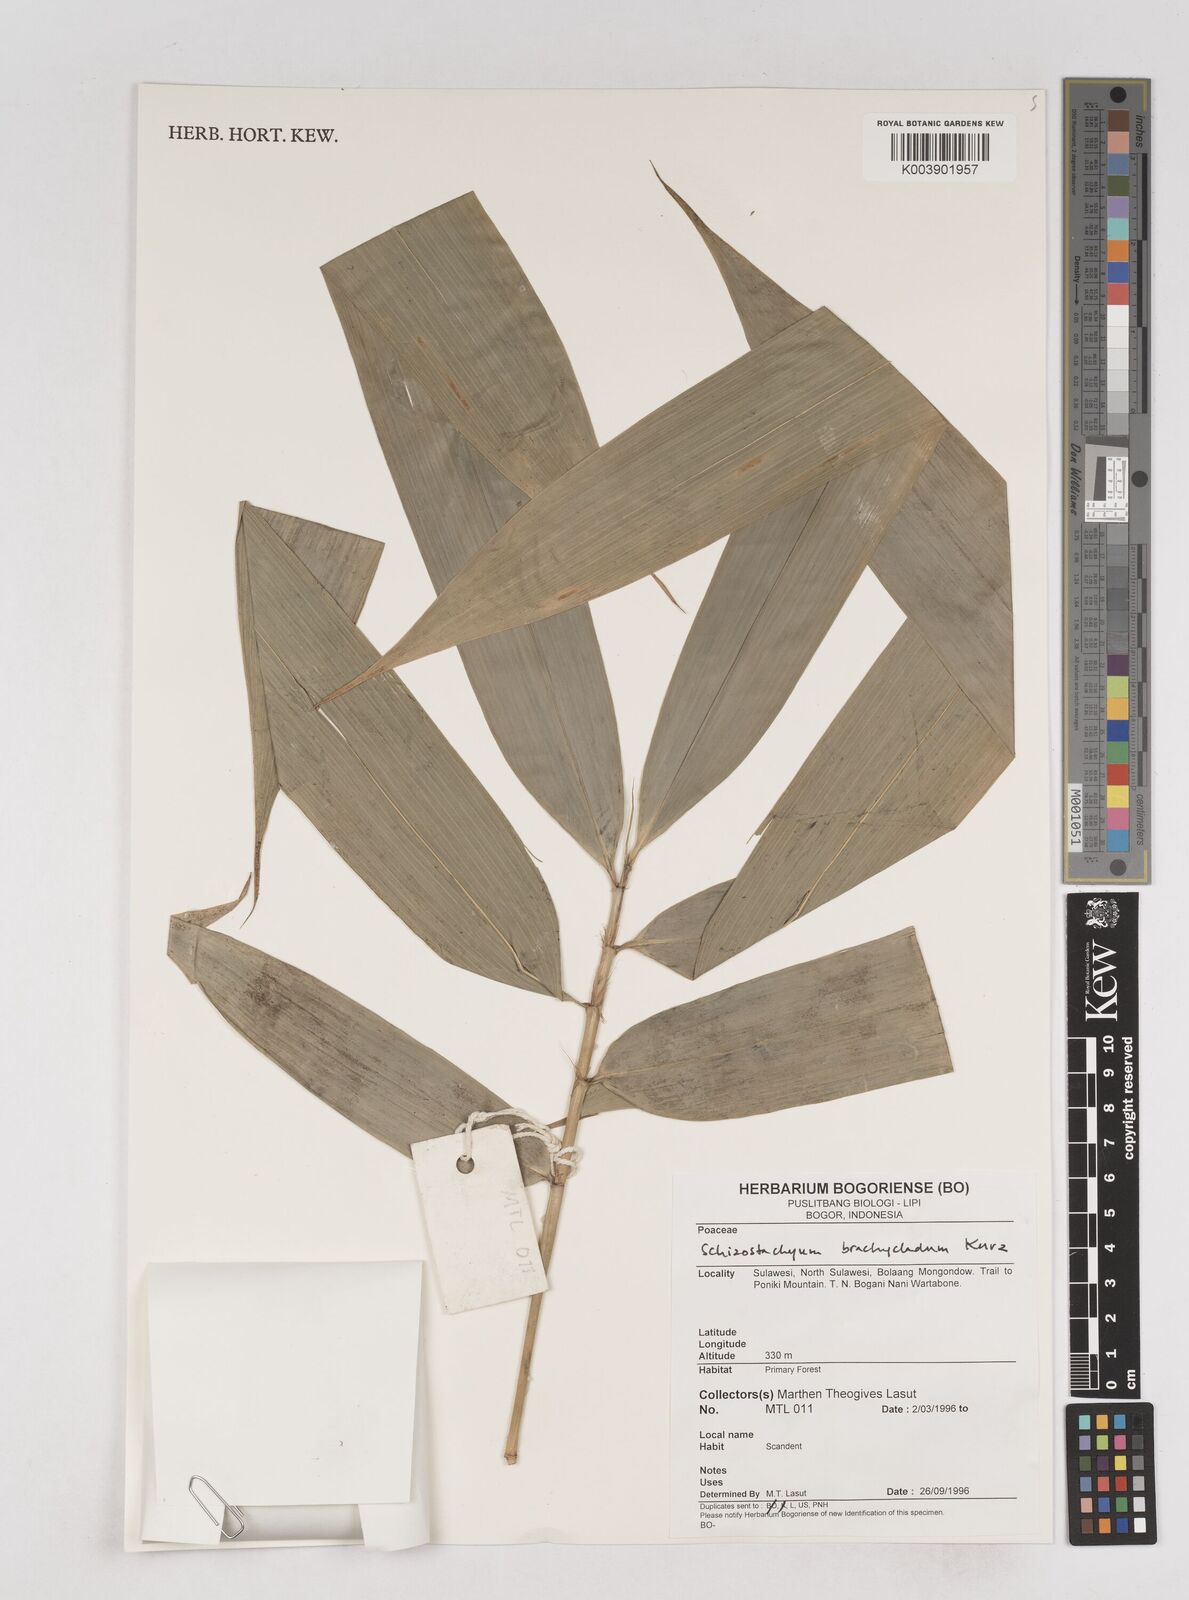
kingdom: Plantae
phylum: Tracheophyta
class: Liliopsida
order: Poales
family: Poaceae
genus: Schizostachyum
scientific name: Schizostachyum brachycladum
